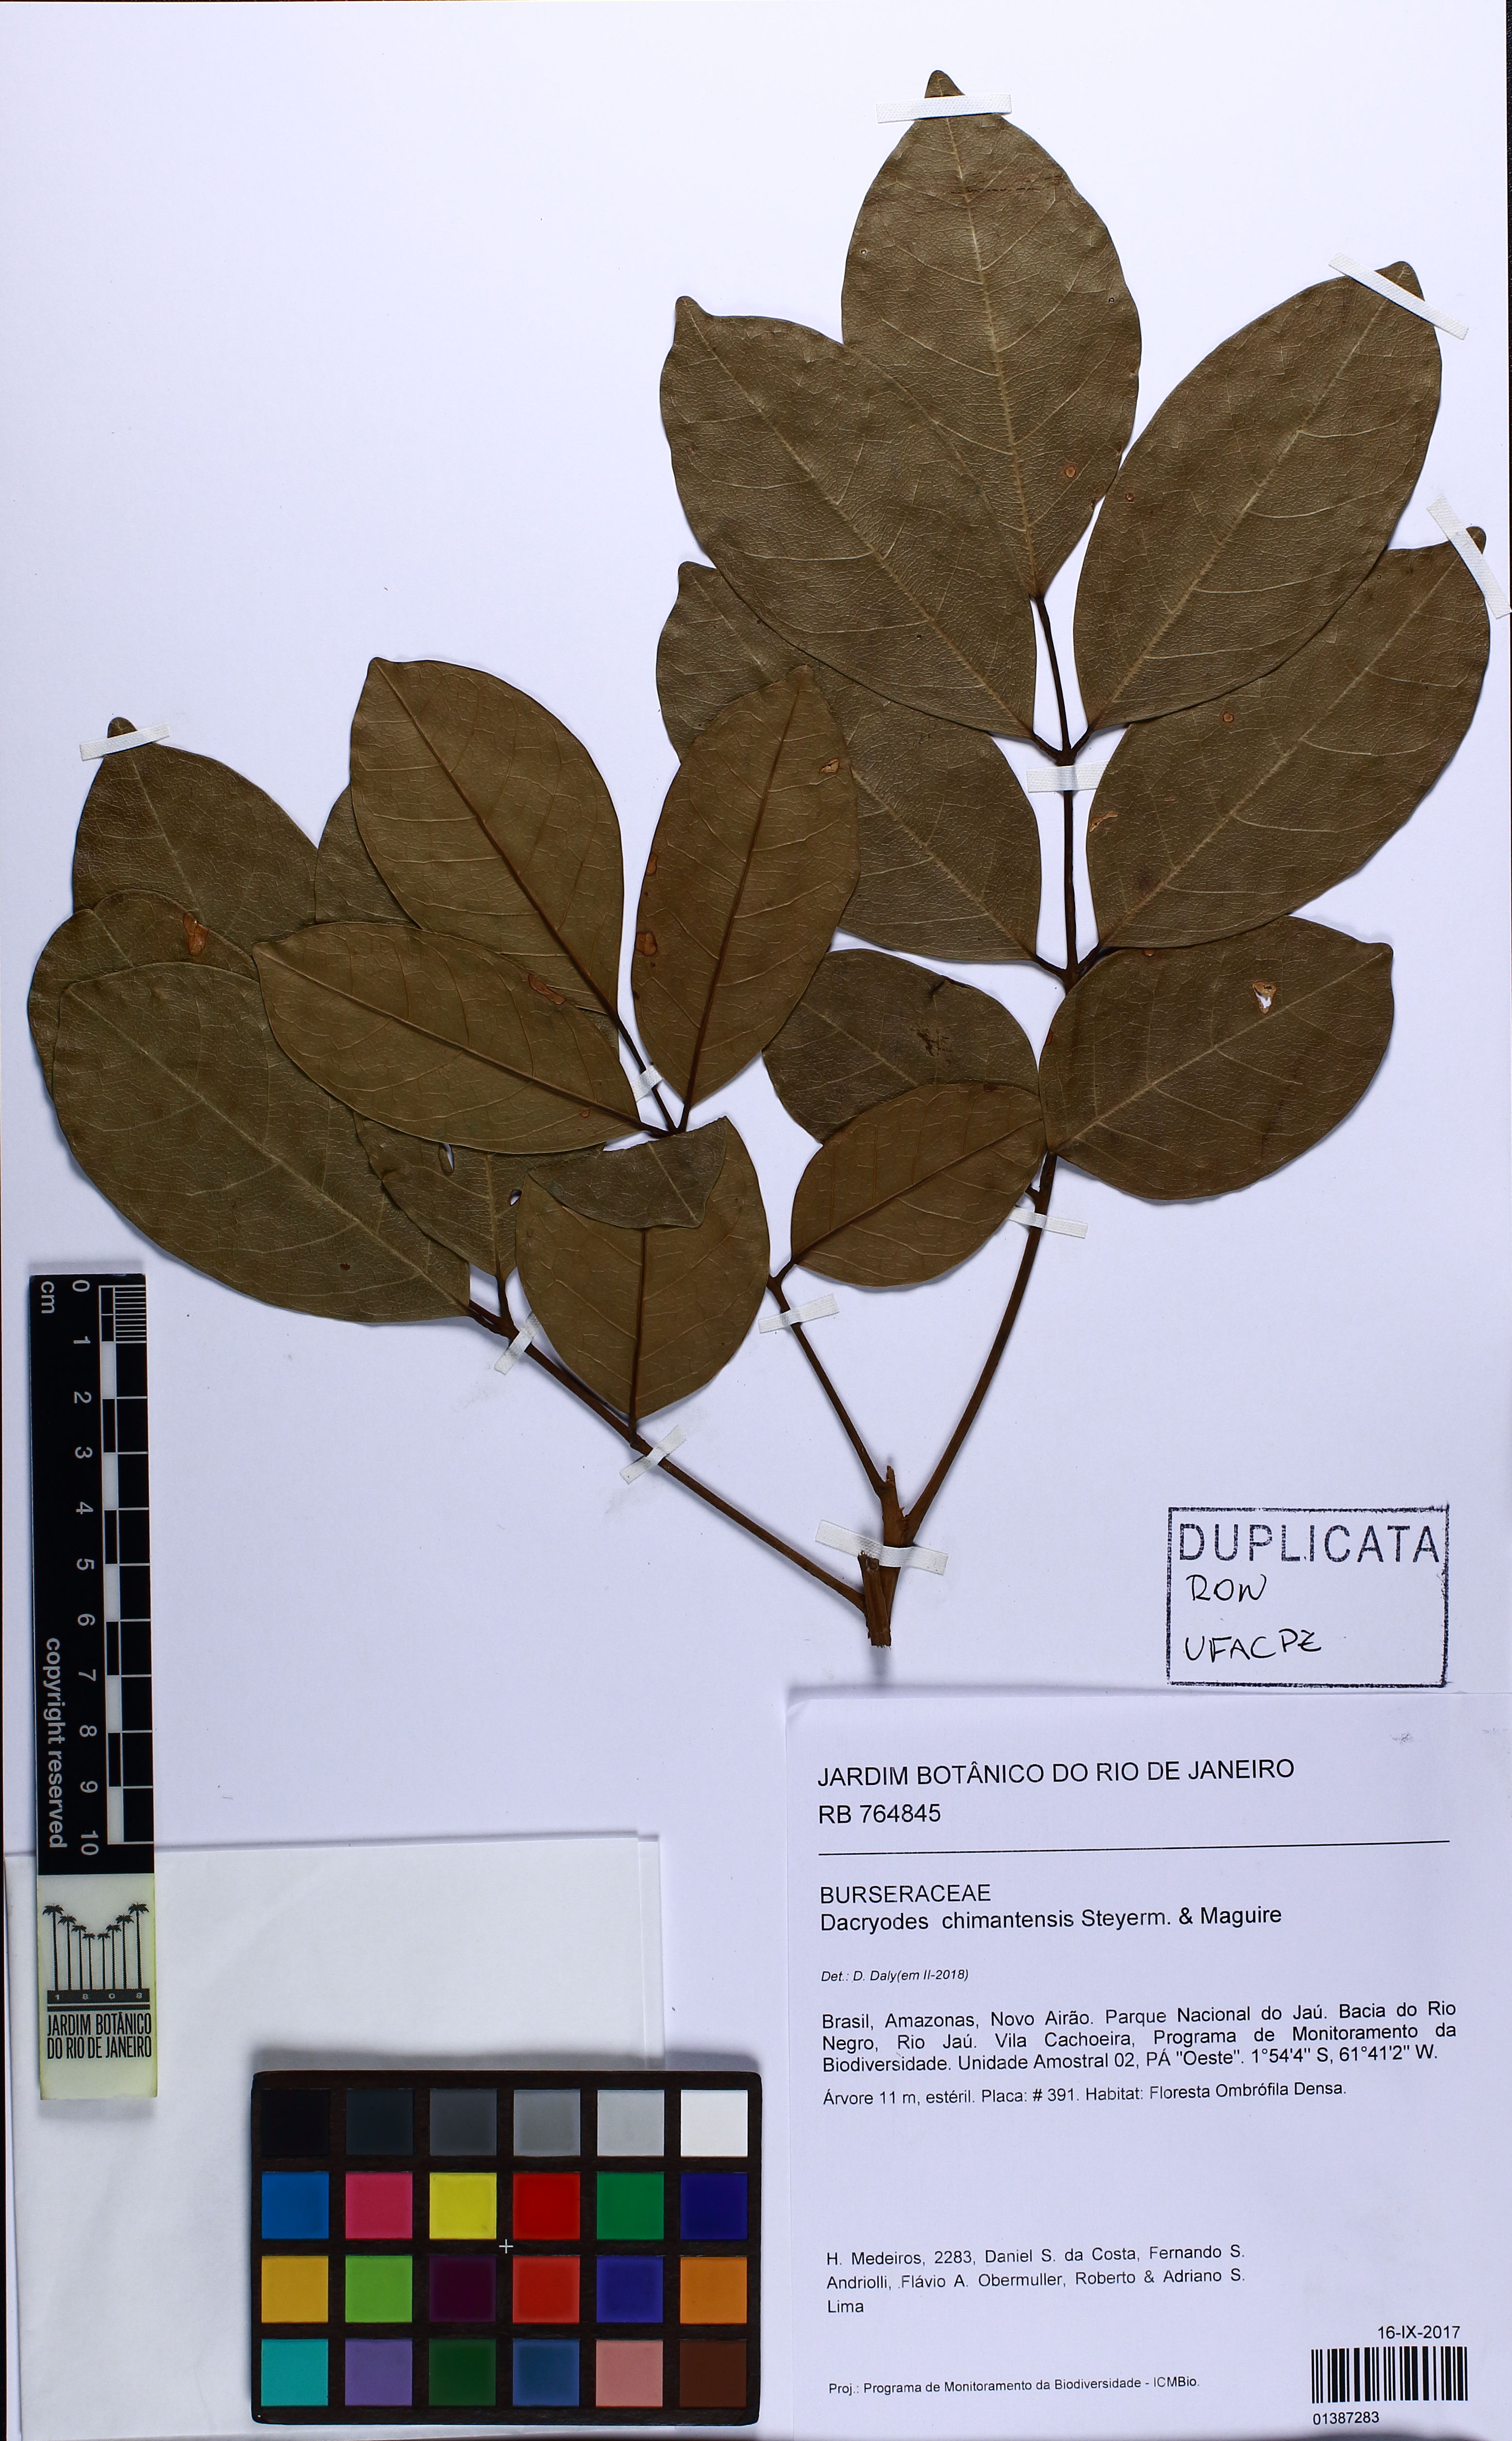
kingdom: Plantae
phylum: Tracheophyta
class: Magnoliopsida
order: Sapindales
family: Burseraceae
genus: Dacryodes
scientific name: Dacryodes chimantensis
